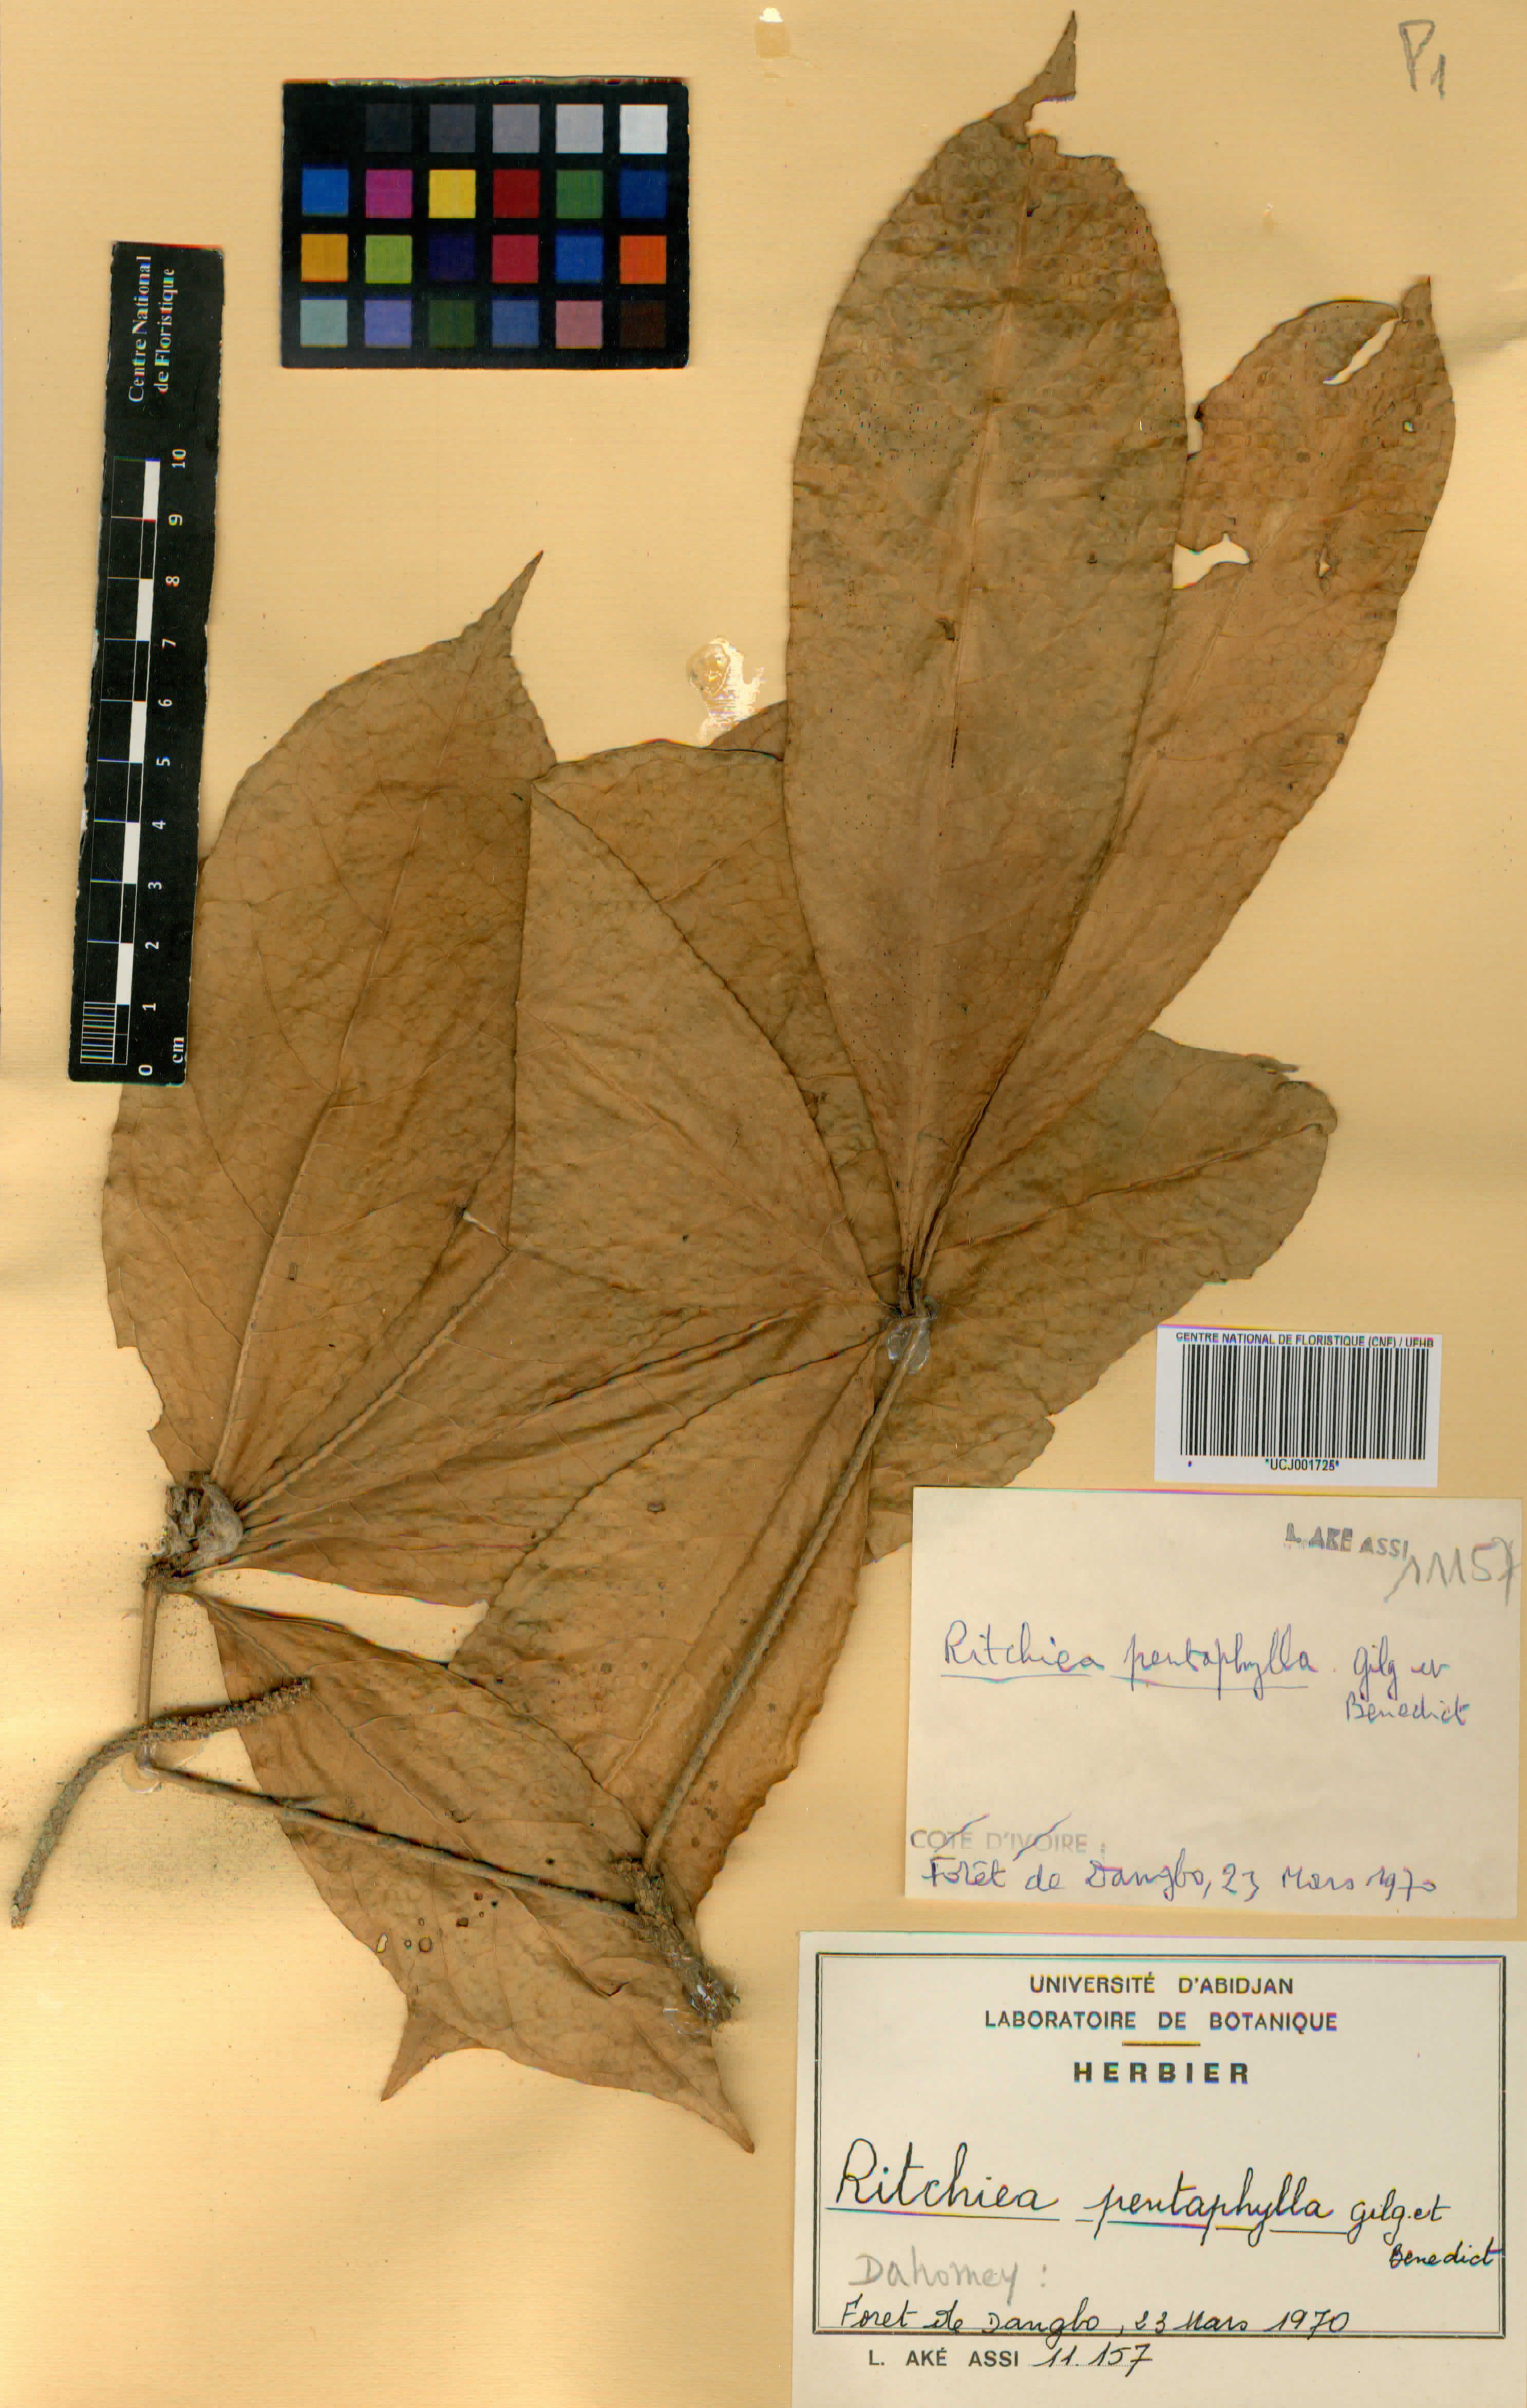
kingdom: Plantae
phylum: Tracheophyta
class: Magnoliopsida
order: Brassicales
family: Capparaceae
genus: Ritchiea
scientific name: Ritchiea erecta
